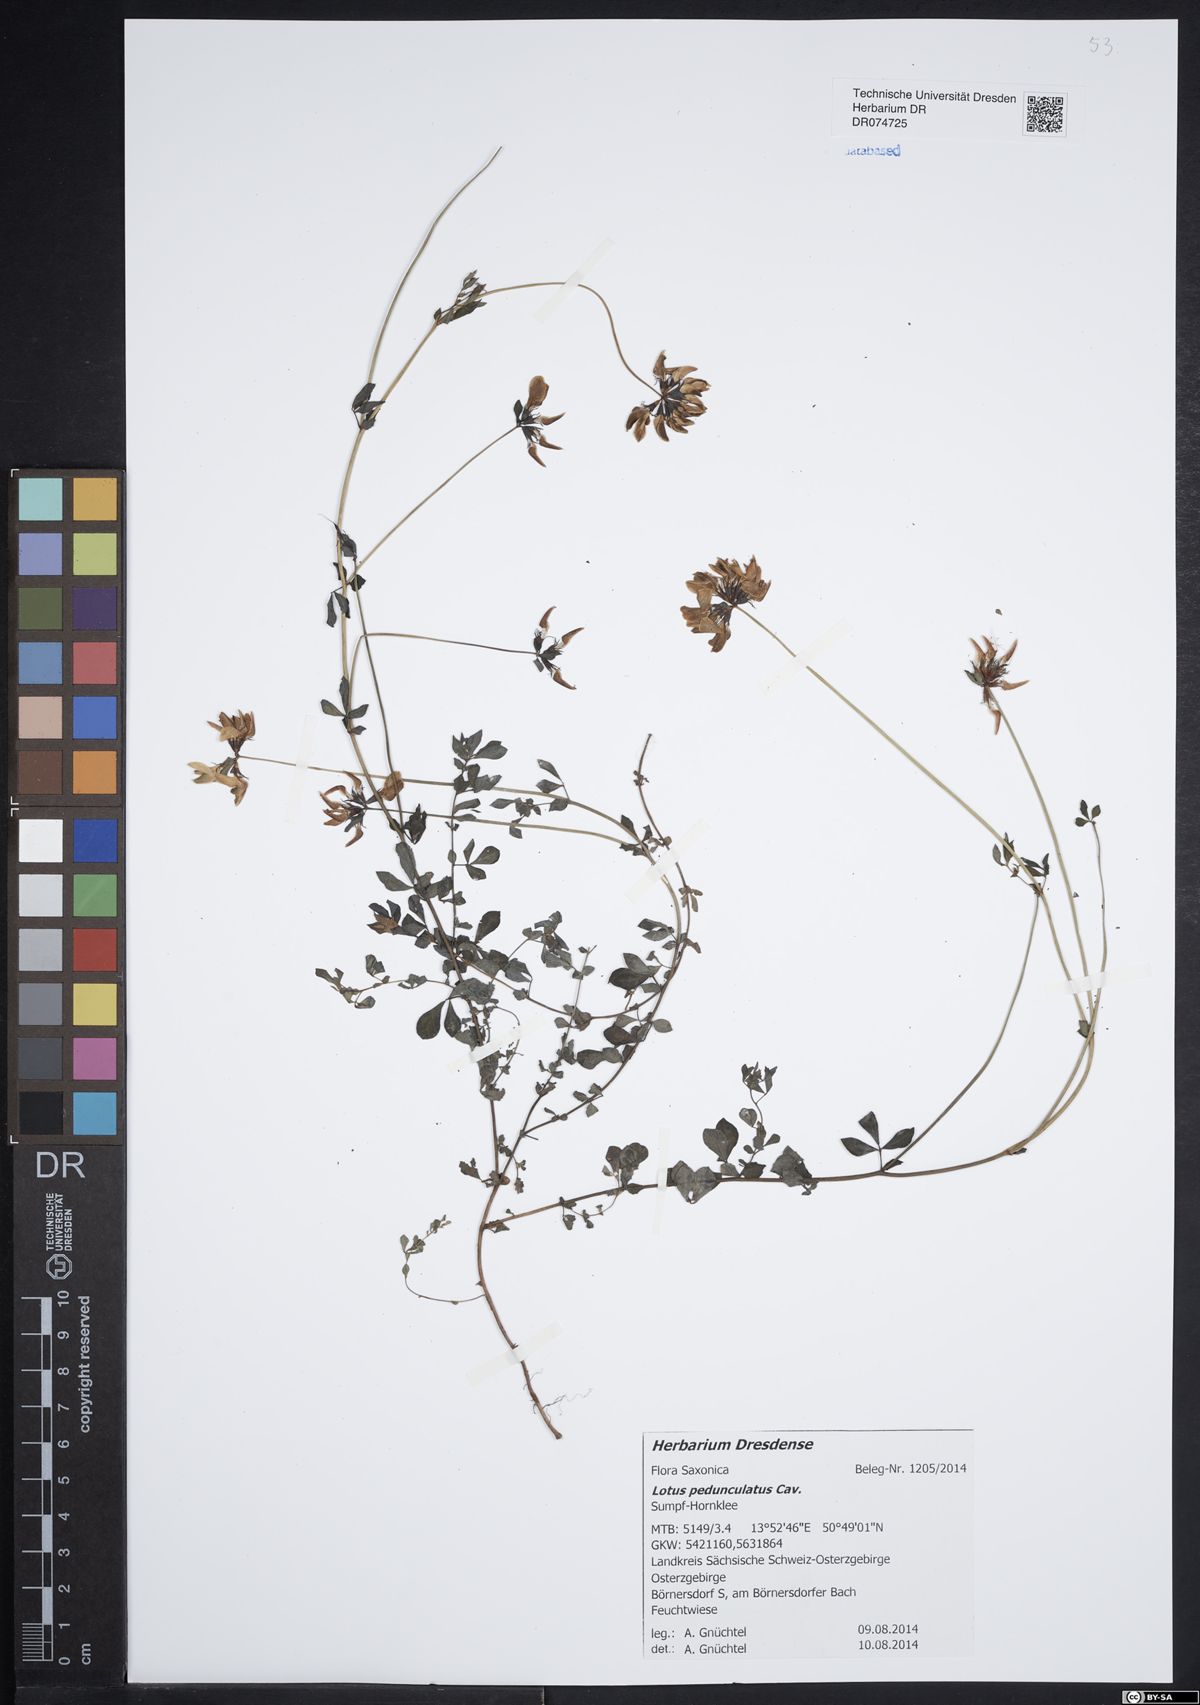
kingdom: Plantae
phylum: Tracheophyta
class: Magnoliopsida
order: Fabales
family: Fabaceae
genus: Lotus
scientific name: Lotus pedunculatus
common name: Greater birdsfoot-trefoil
